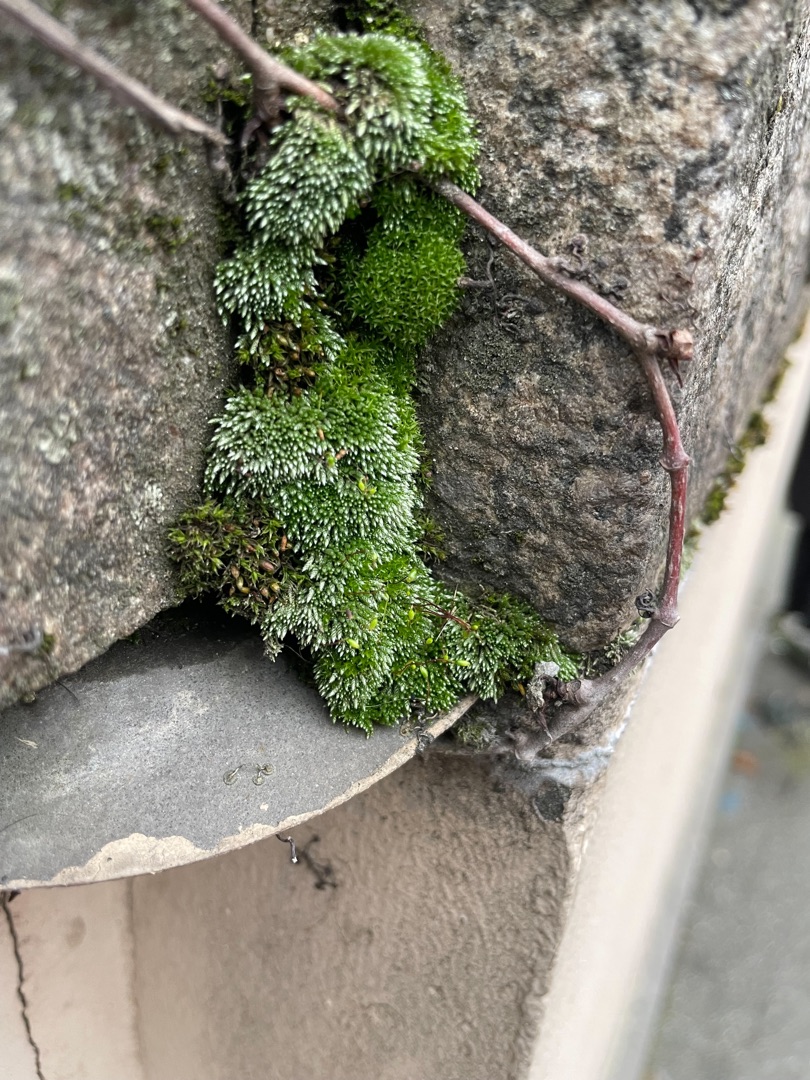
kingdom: Plantae
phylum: Bryophyta
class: Bryopsida
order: Bryales
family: Bryaceae
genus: Bryum
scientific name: Bryum argenteum
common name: Sølv-bryum
